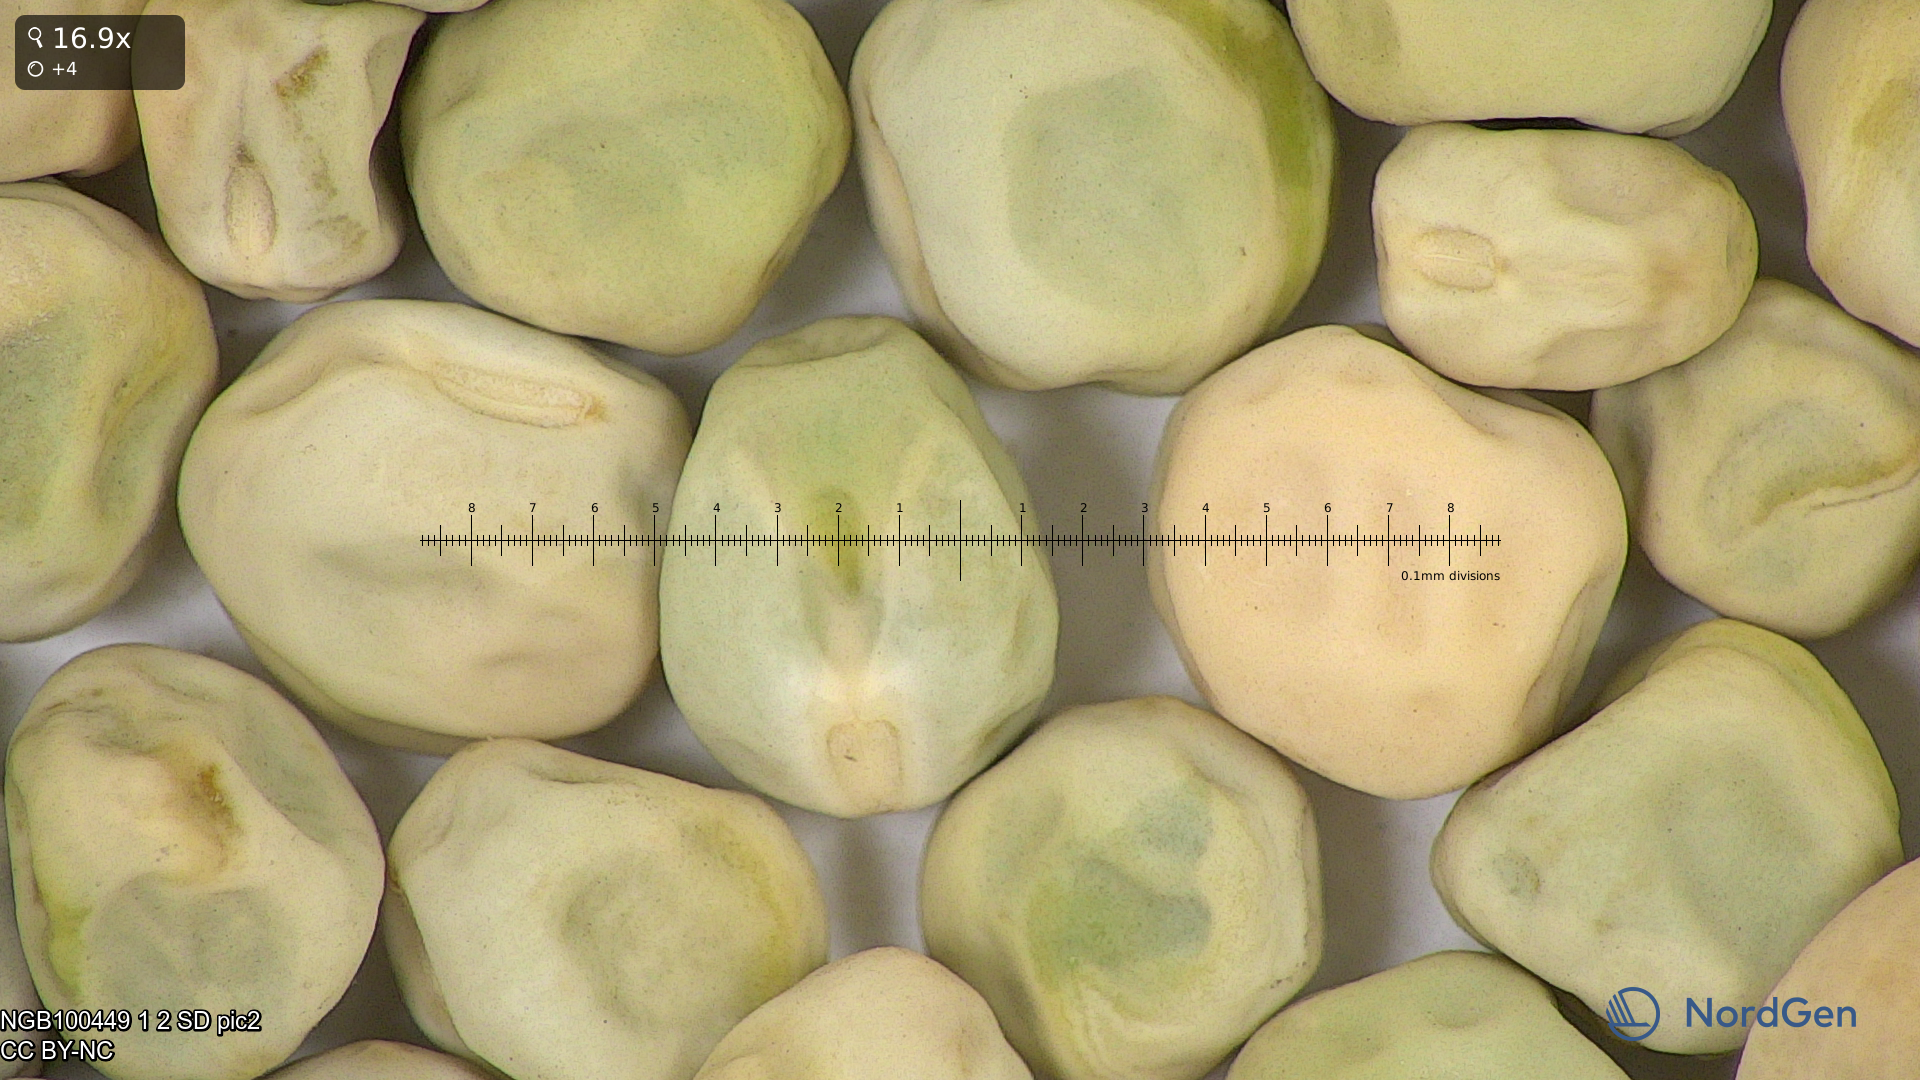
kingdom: Plantae
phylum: Tracheophyta
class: Magnoliopsida
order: Fabales
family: Fabaceae
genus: Lathyrus
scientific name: Lathyrus oleraceus
